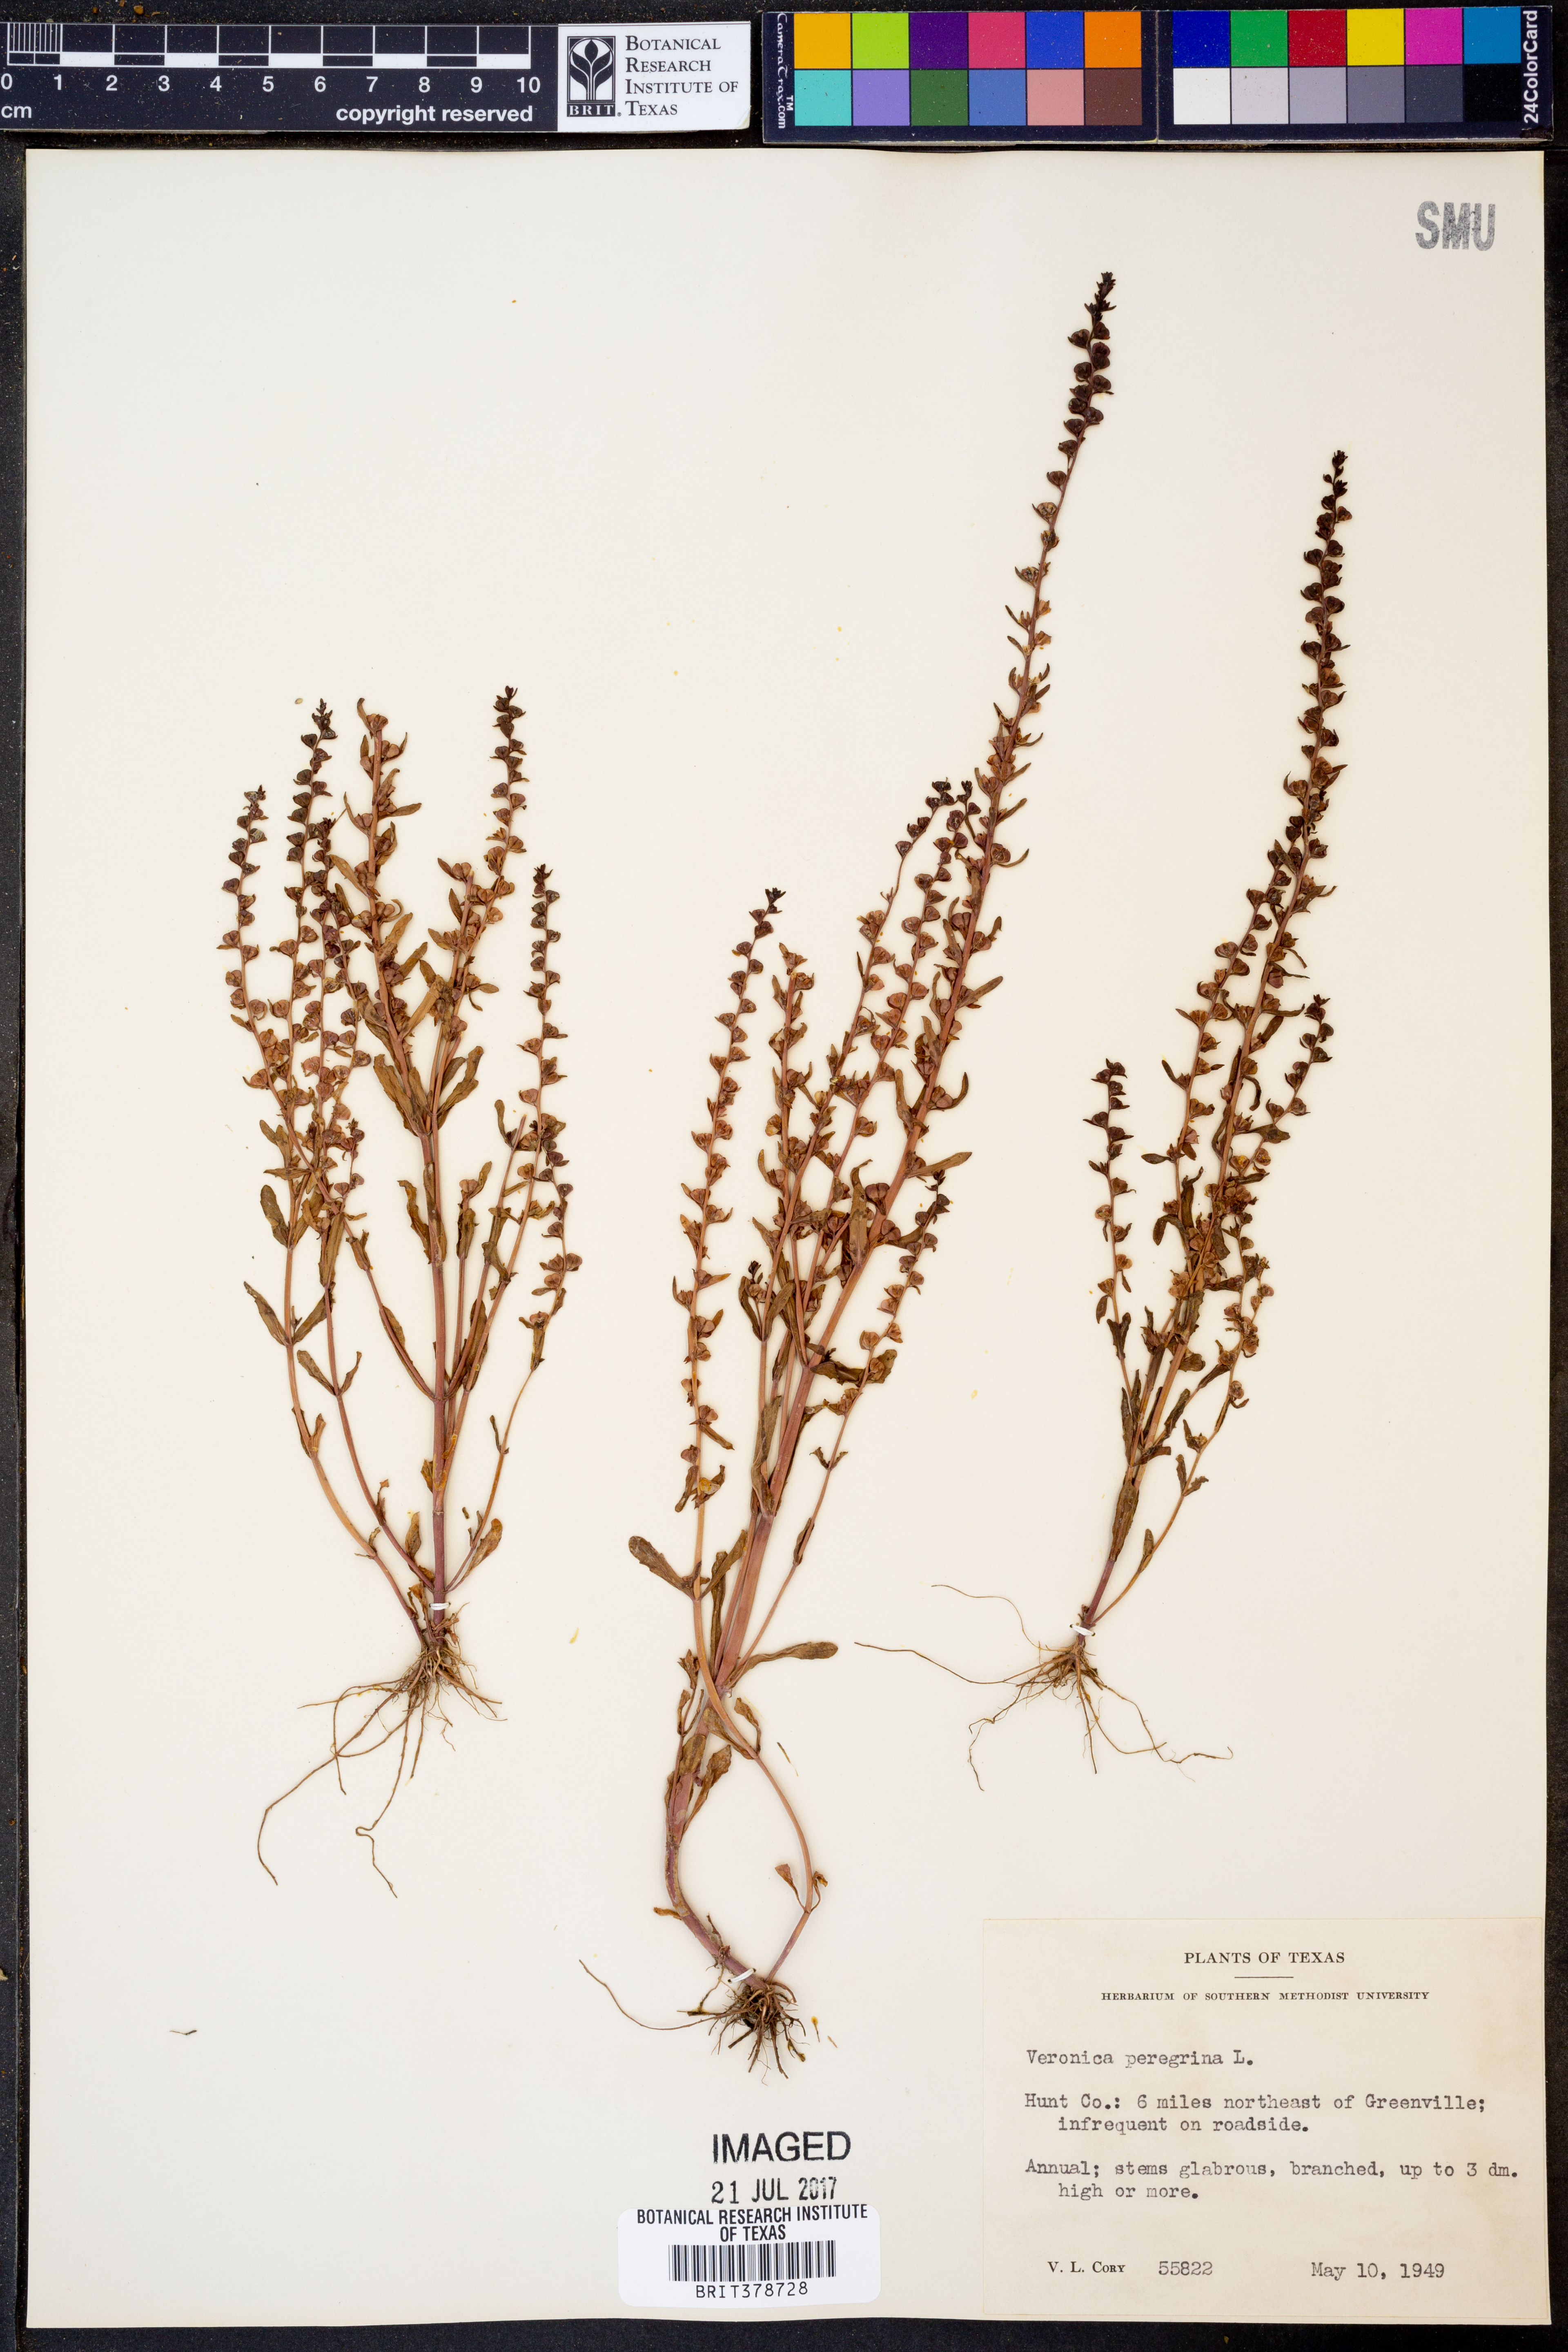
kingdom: Plantae
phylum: Tracheophyta
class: Magnoliopsida
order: Lamiales
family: Plantaginaceae
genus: Veronica
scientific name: Veronica peregrina
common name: Neckweed
